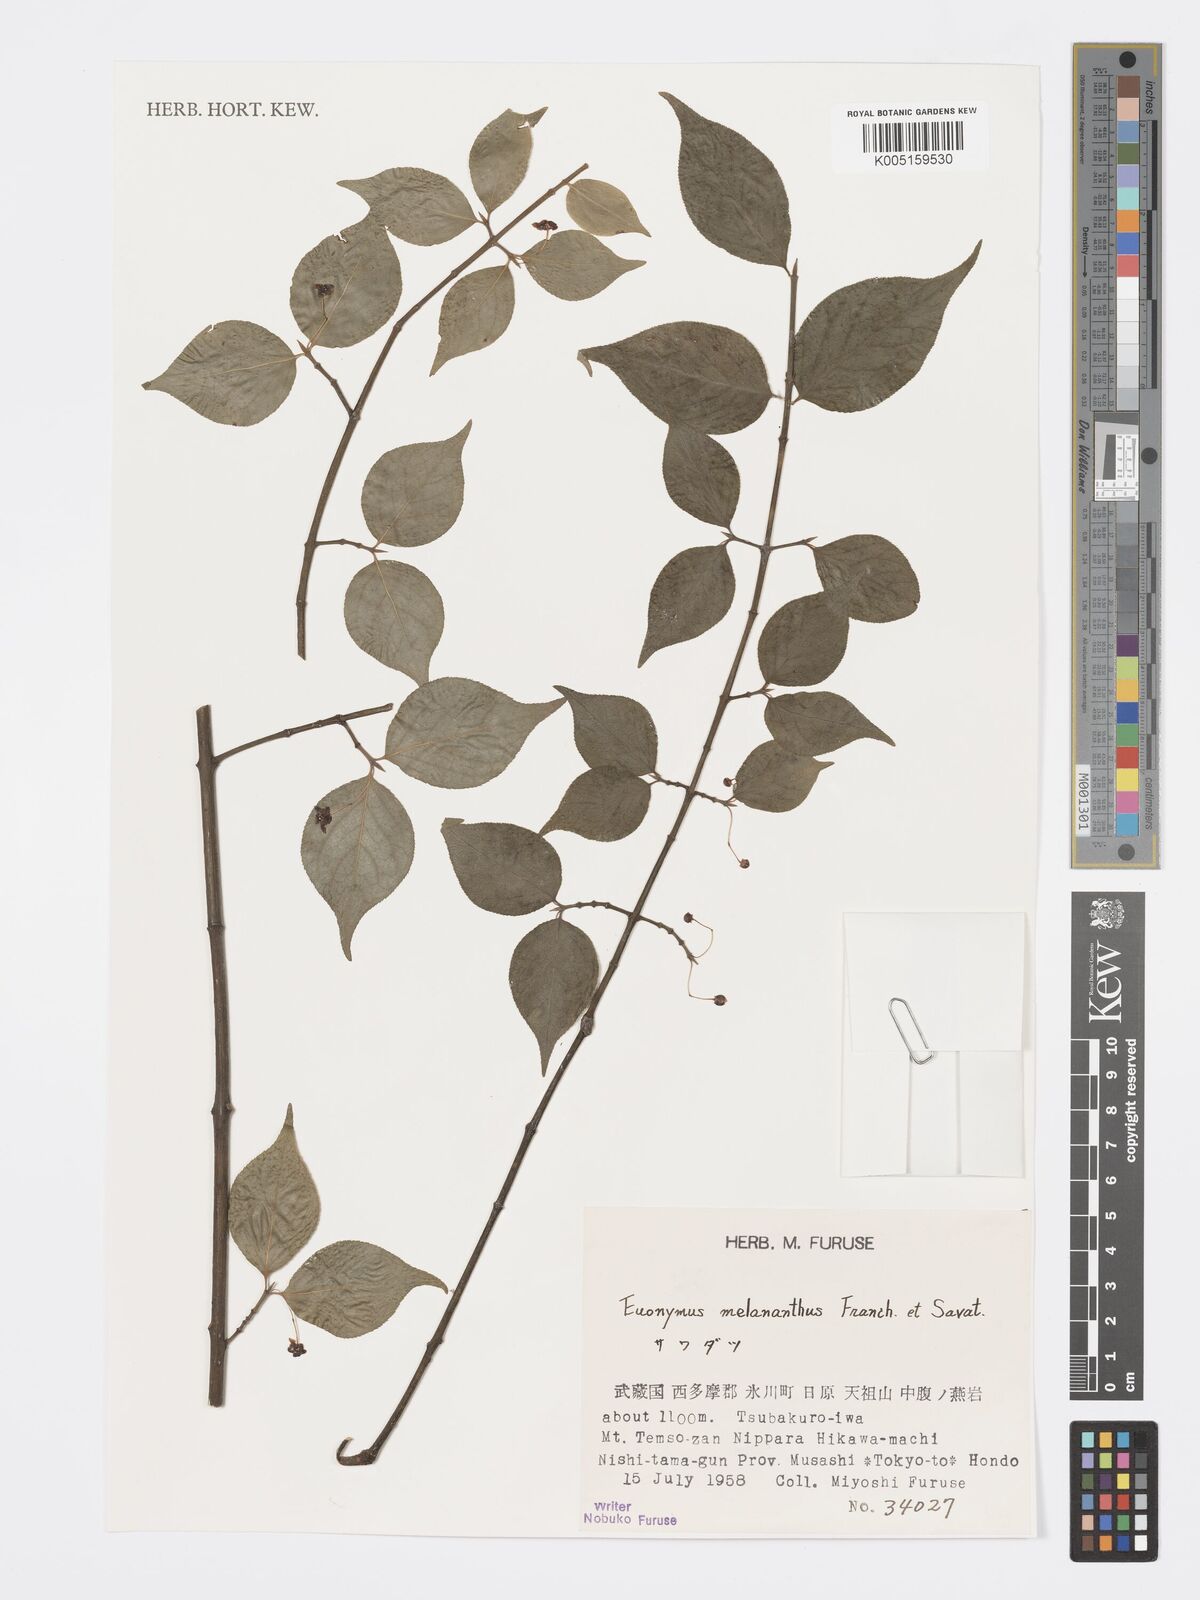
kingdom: Plantae
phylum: Tracheophyta
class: Magnoliopsida
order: Celastrales
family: Celastraceae
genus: Euonymus
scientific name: Euonymus melananthus
